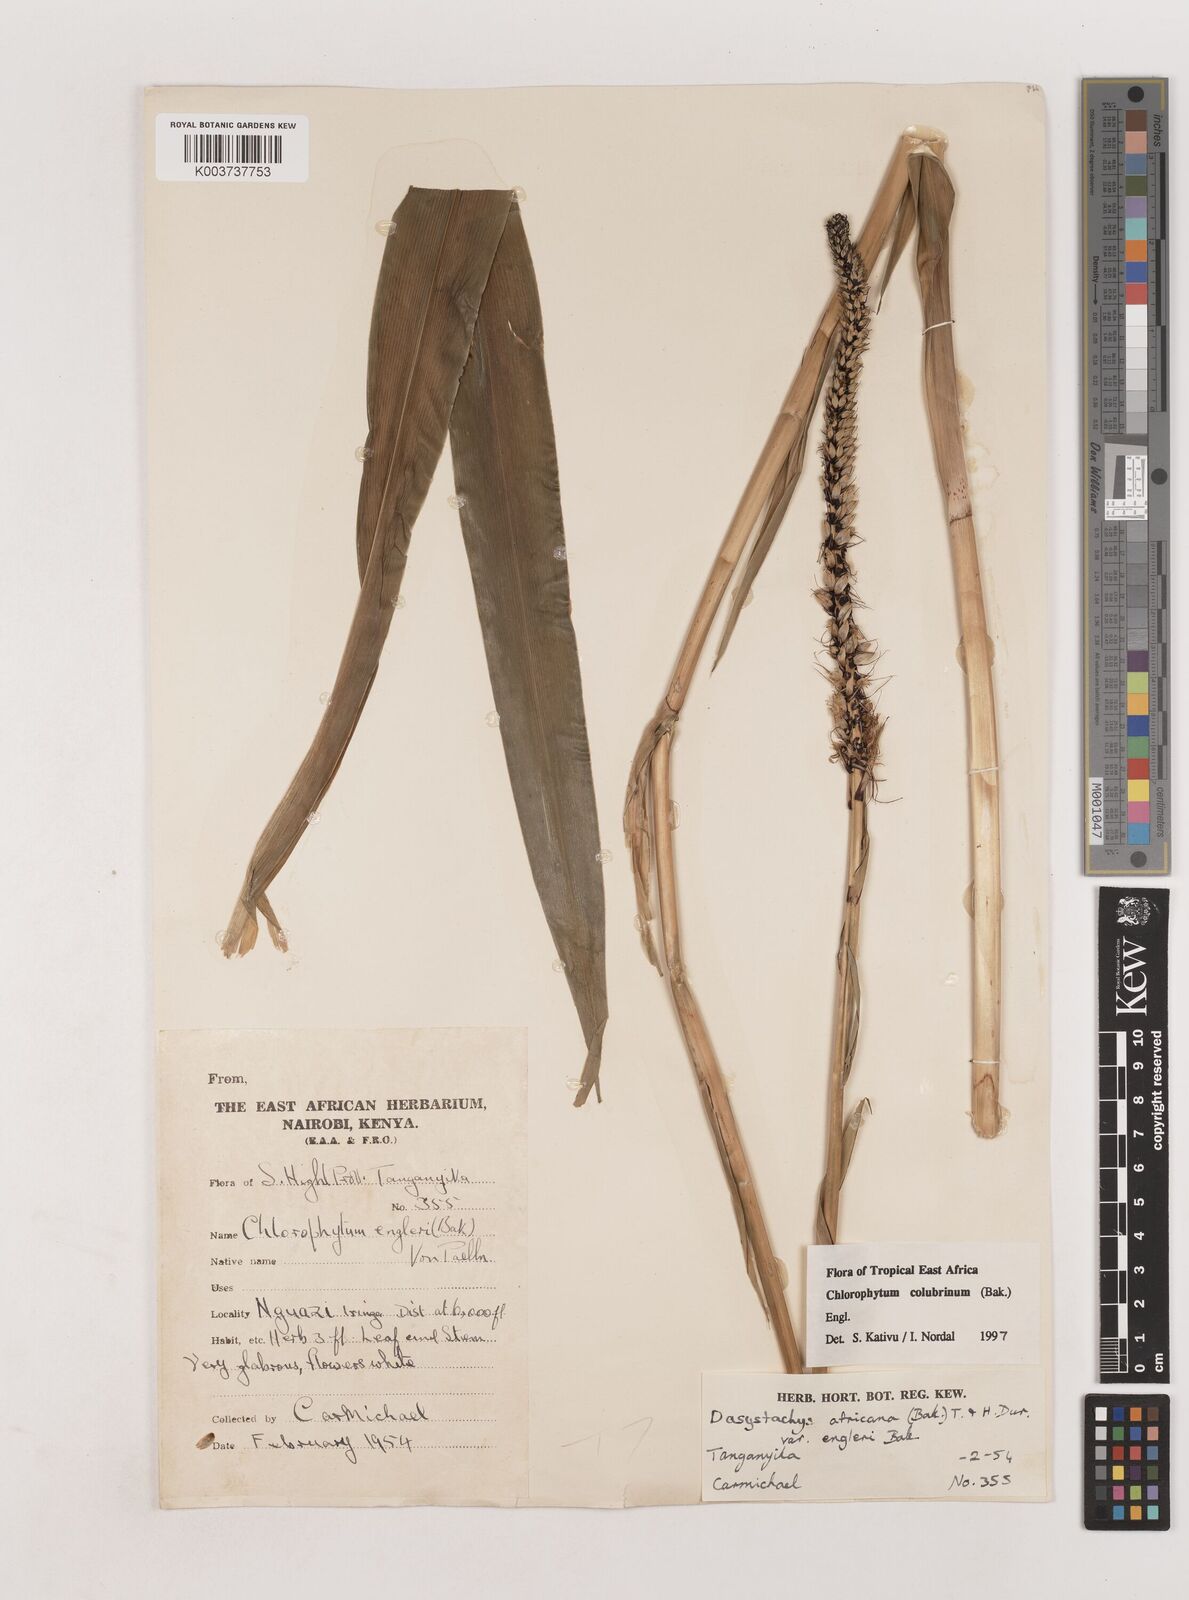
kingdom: Plantae
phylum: Tracheophyta
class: Liliopsida
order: Asparagales
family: Asparagaceae
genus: Chlorophytum
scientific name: Chlorophytum colubrinum
